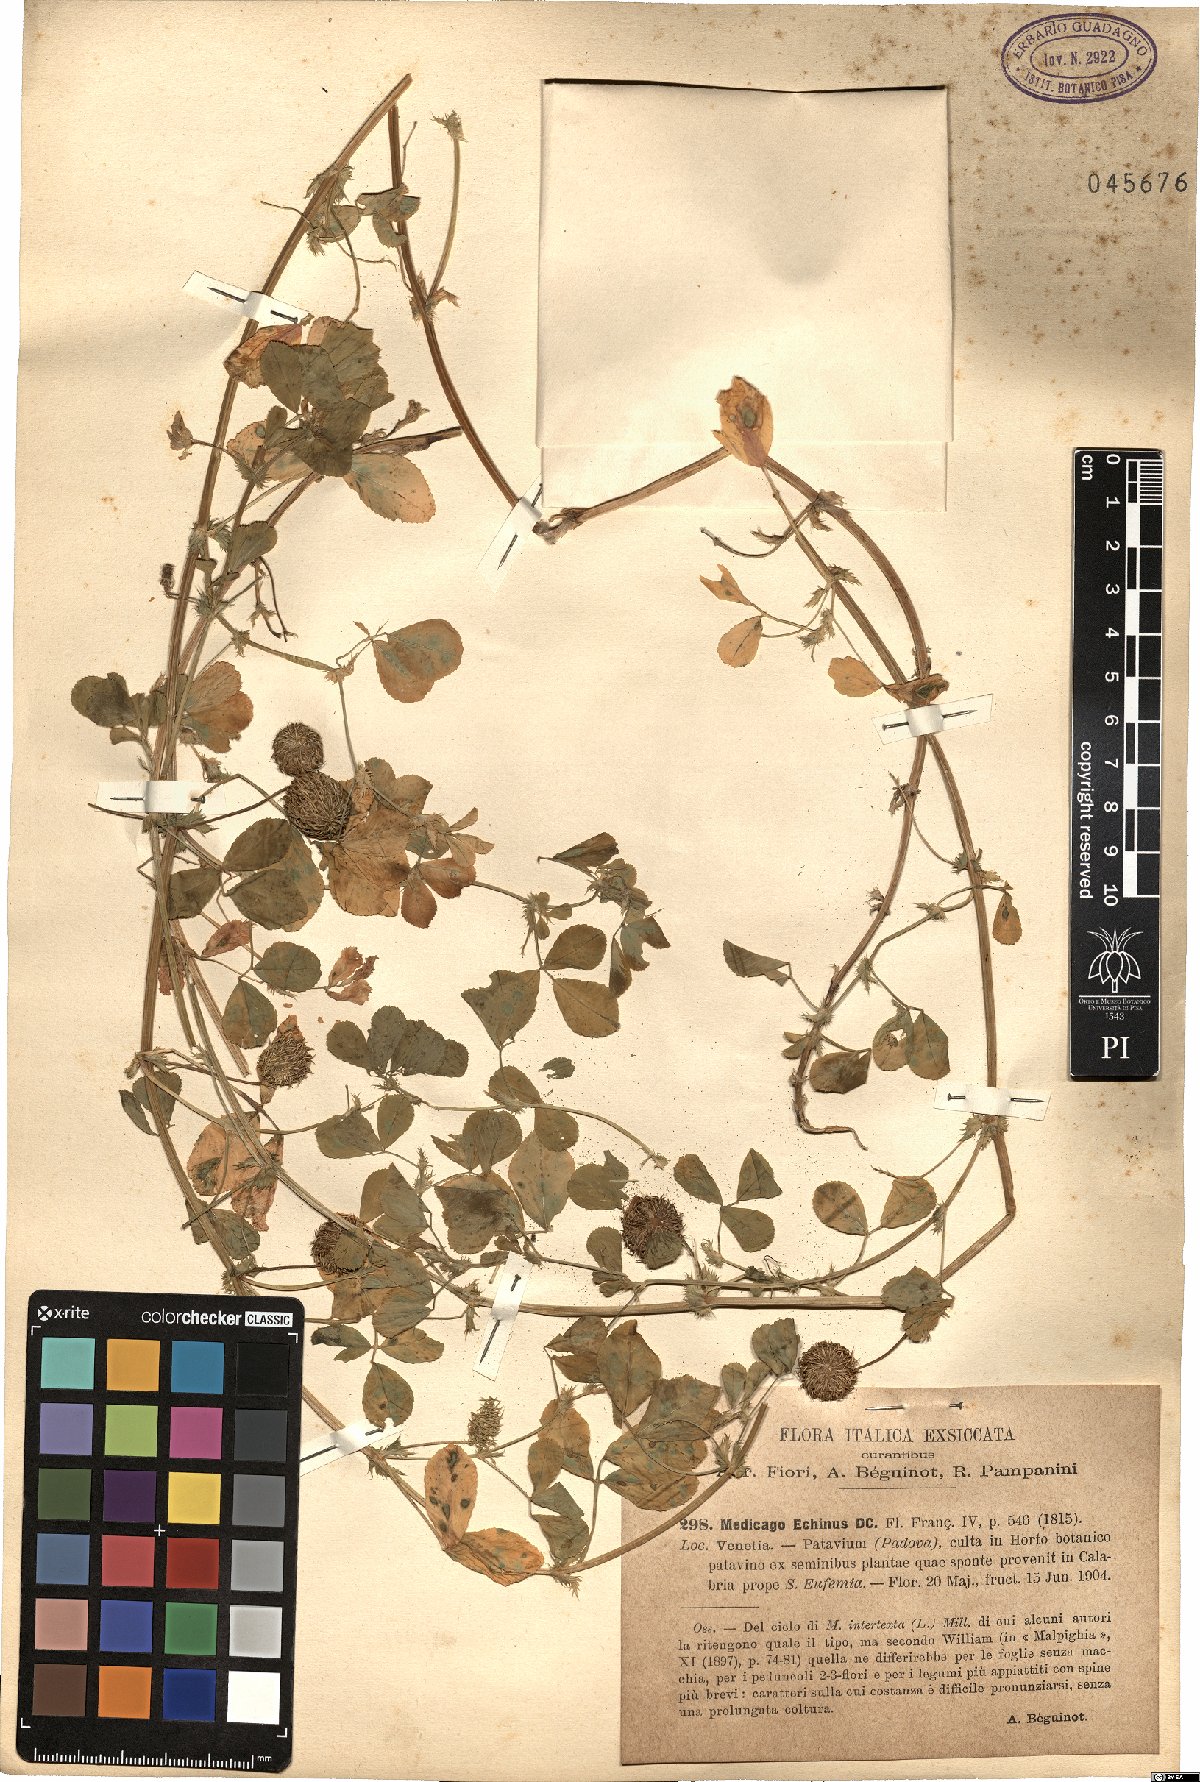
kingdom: Plantae
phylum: Tracheophyta
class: Magnoliopsida
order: Fabales
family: Fabaceae
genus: Medicago
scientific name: Medicago intertexta
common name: Hedgehog medick
